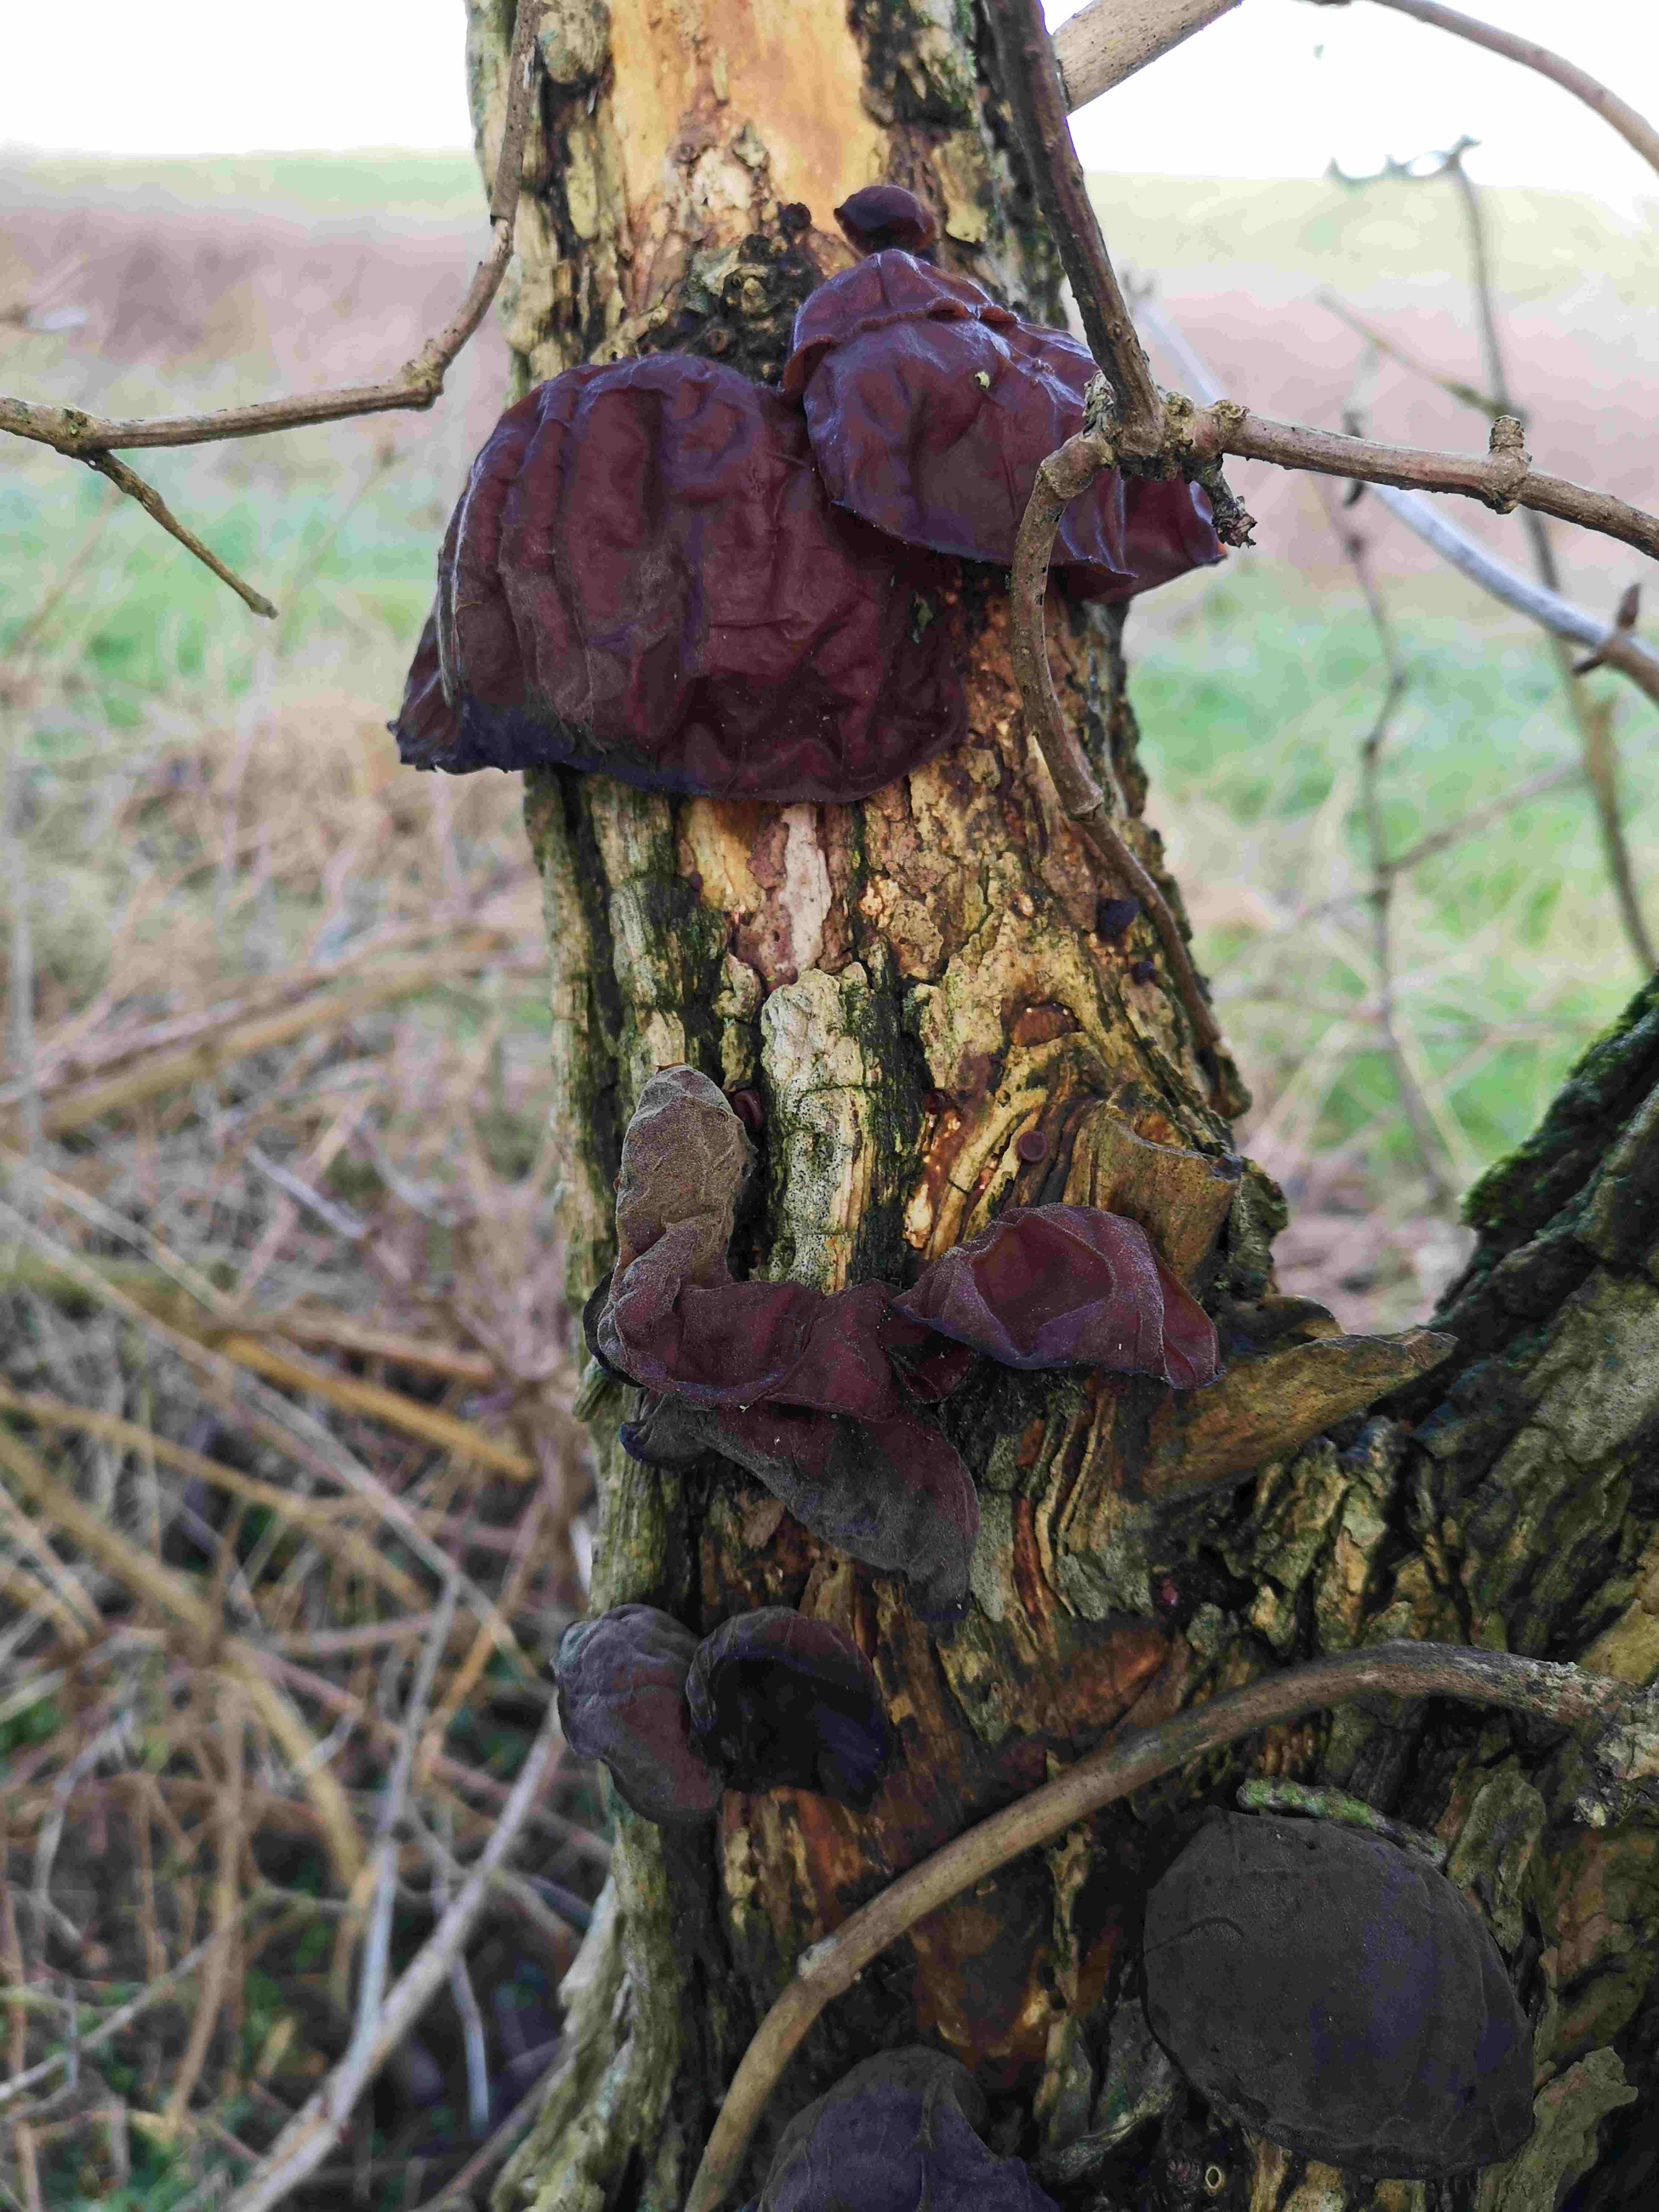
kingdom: Fungi
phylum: Basidiomycota
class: Agaricomycetes
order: Auriculariales
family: Auriculariaceae
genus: Auricularia
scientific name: Auricularia auricula-judae
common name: almindelig judasøre
